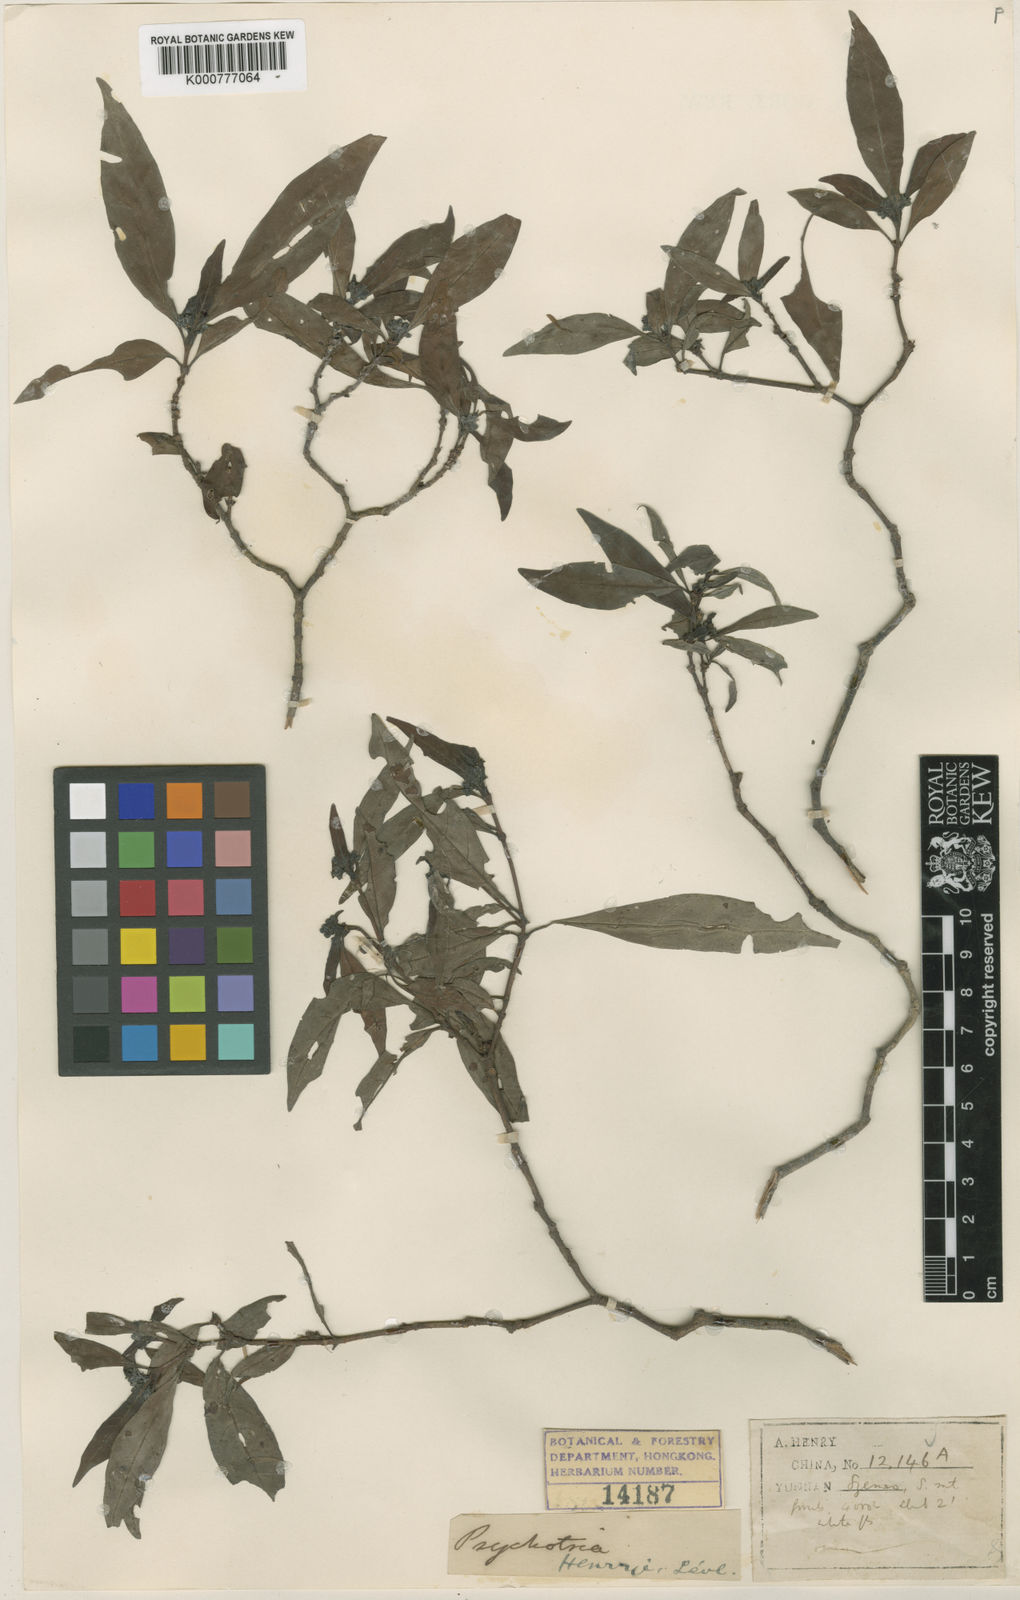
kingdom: Plantae
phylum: Tracheophyta
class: Magnoliopsida
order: Gentianales
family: Rubiaceae
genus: Psychotria
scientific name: Psychotria
